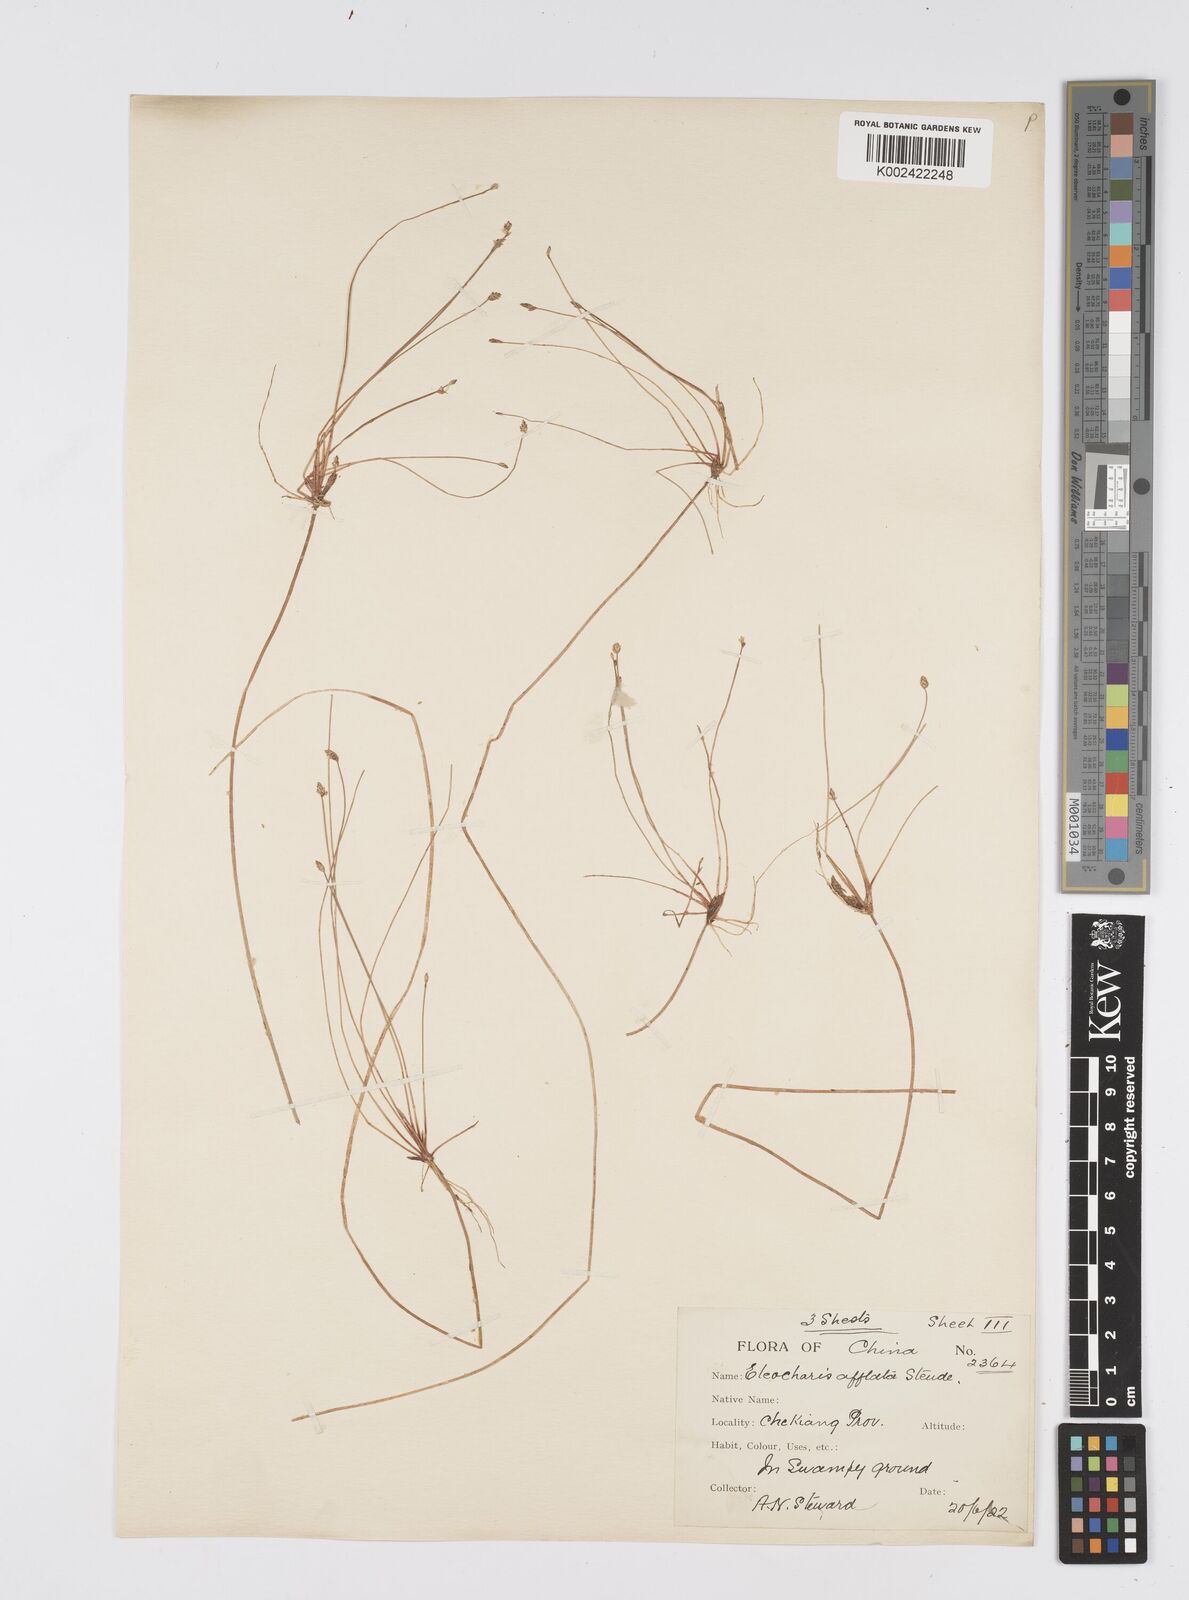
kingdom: Plantae
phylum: Tracheophyta
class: Liliopsida
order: Poales
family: Cyperaceae
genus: Eleocharis
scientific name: Eleocharis pellucida
